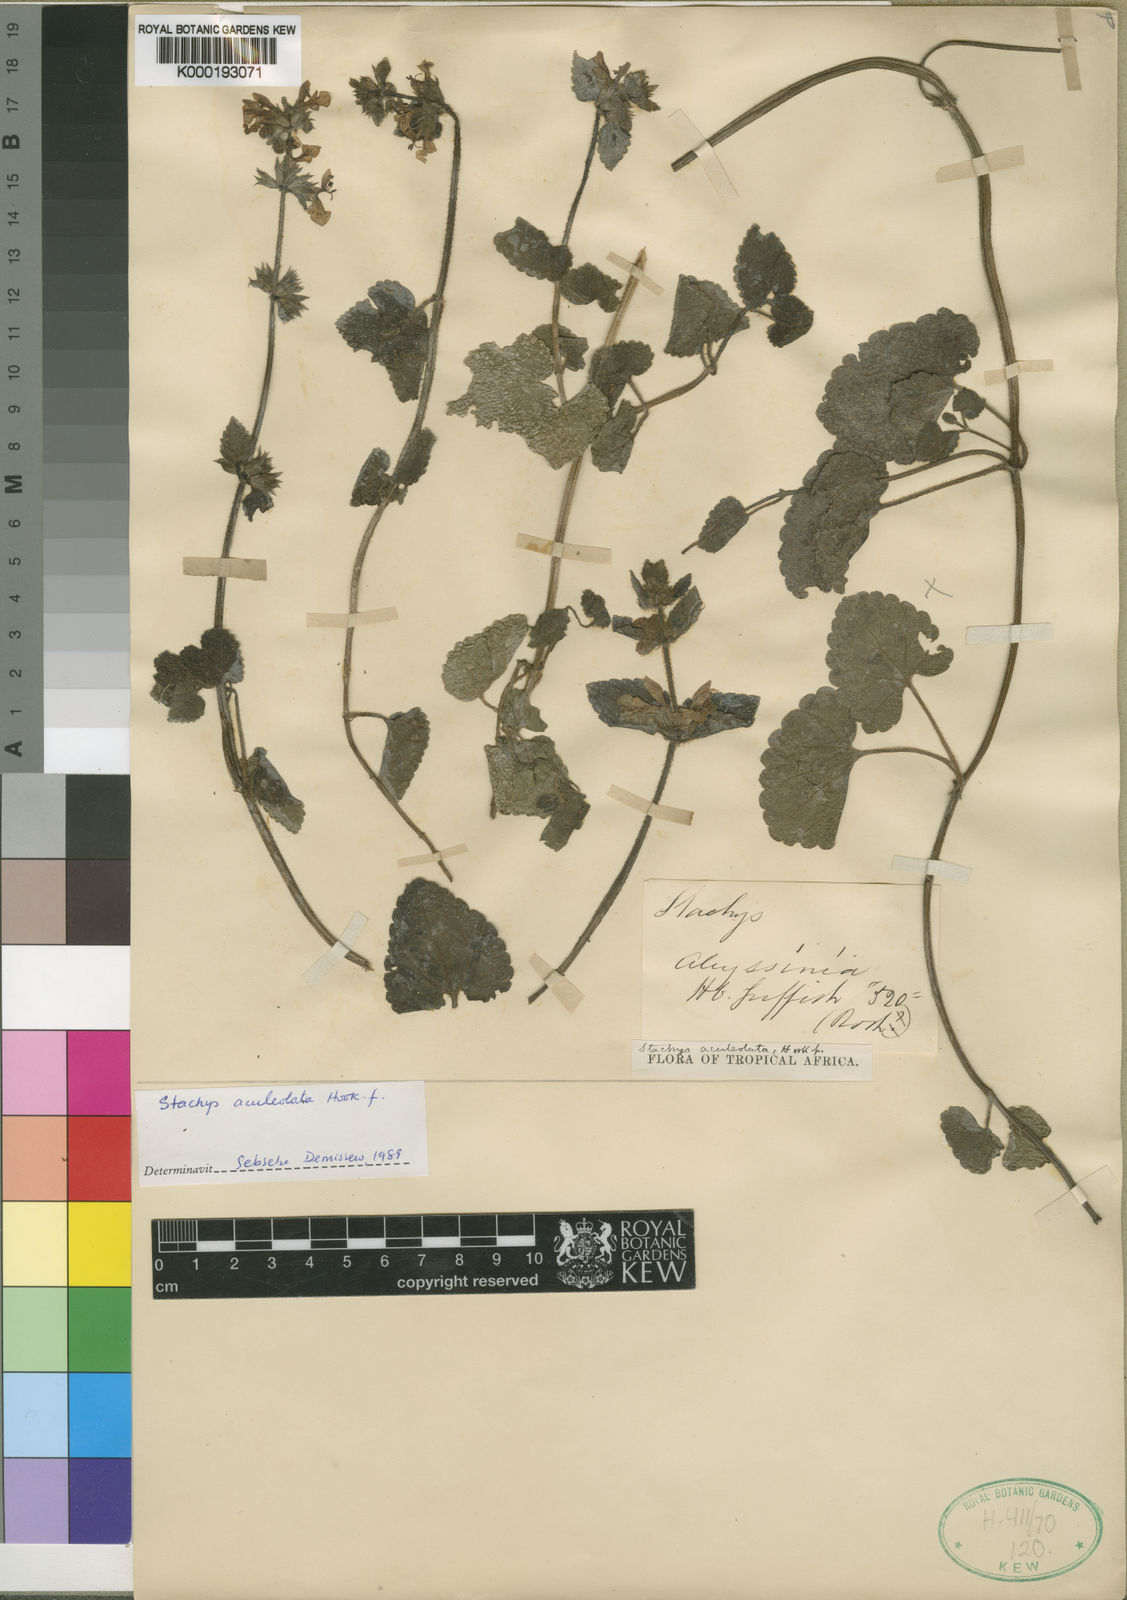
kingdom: Plantae
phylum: Tracheophyta
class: Magnoliopsida
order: Lamiales
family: Lamiaceae
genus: Stachys
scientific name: Stachys
